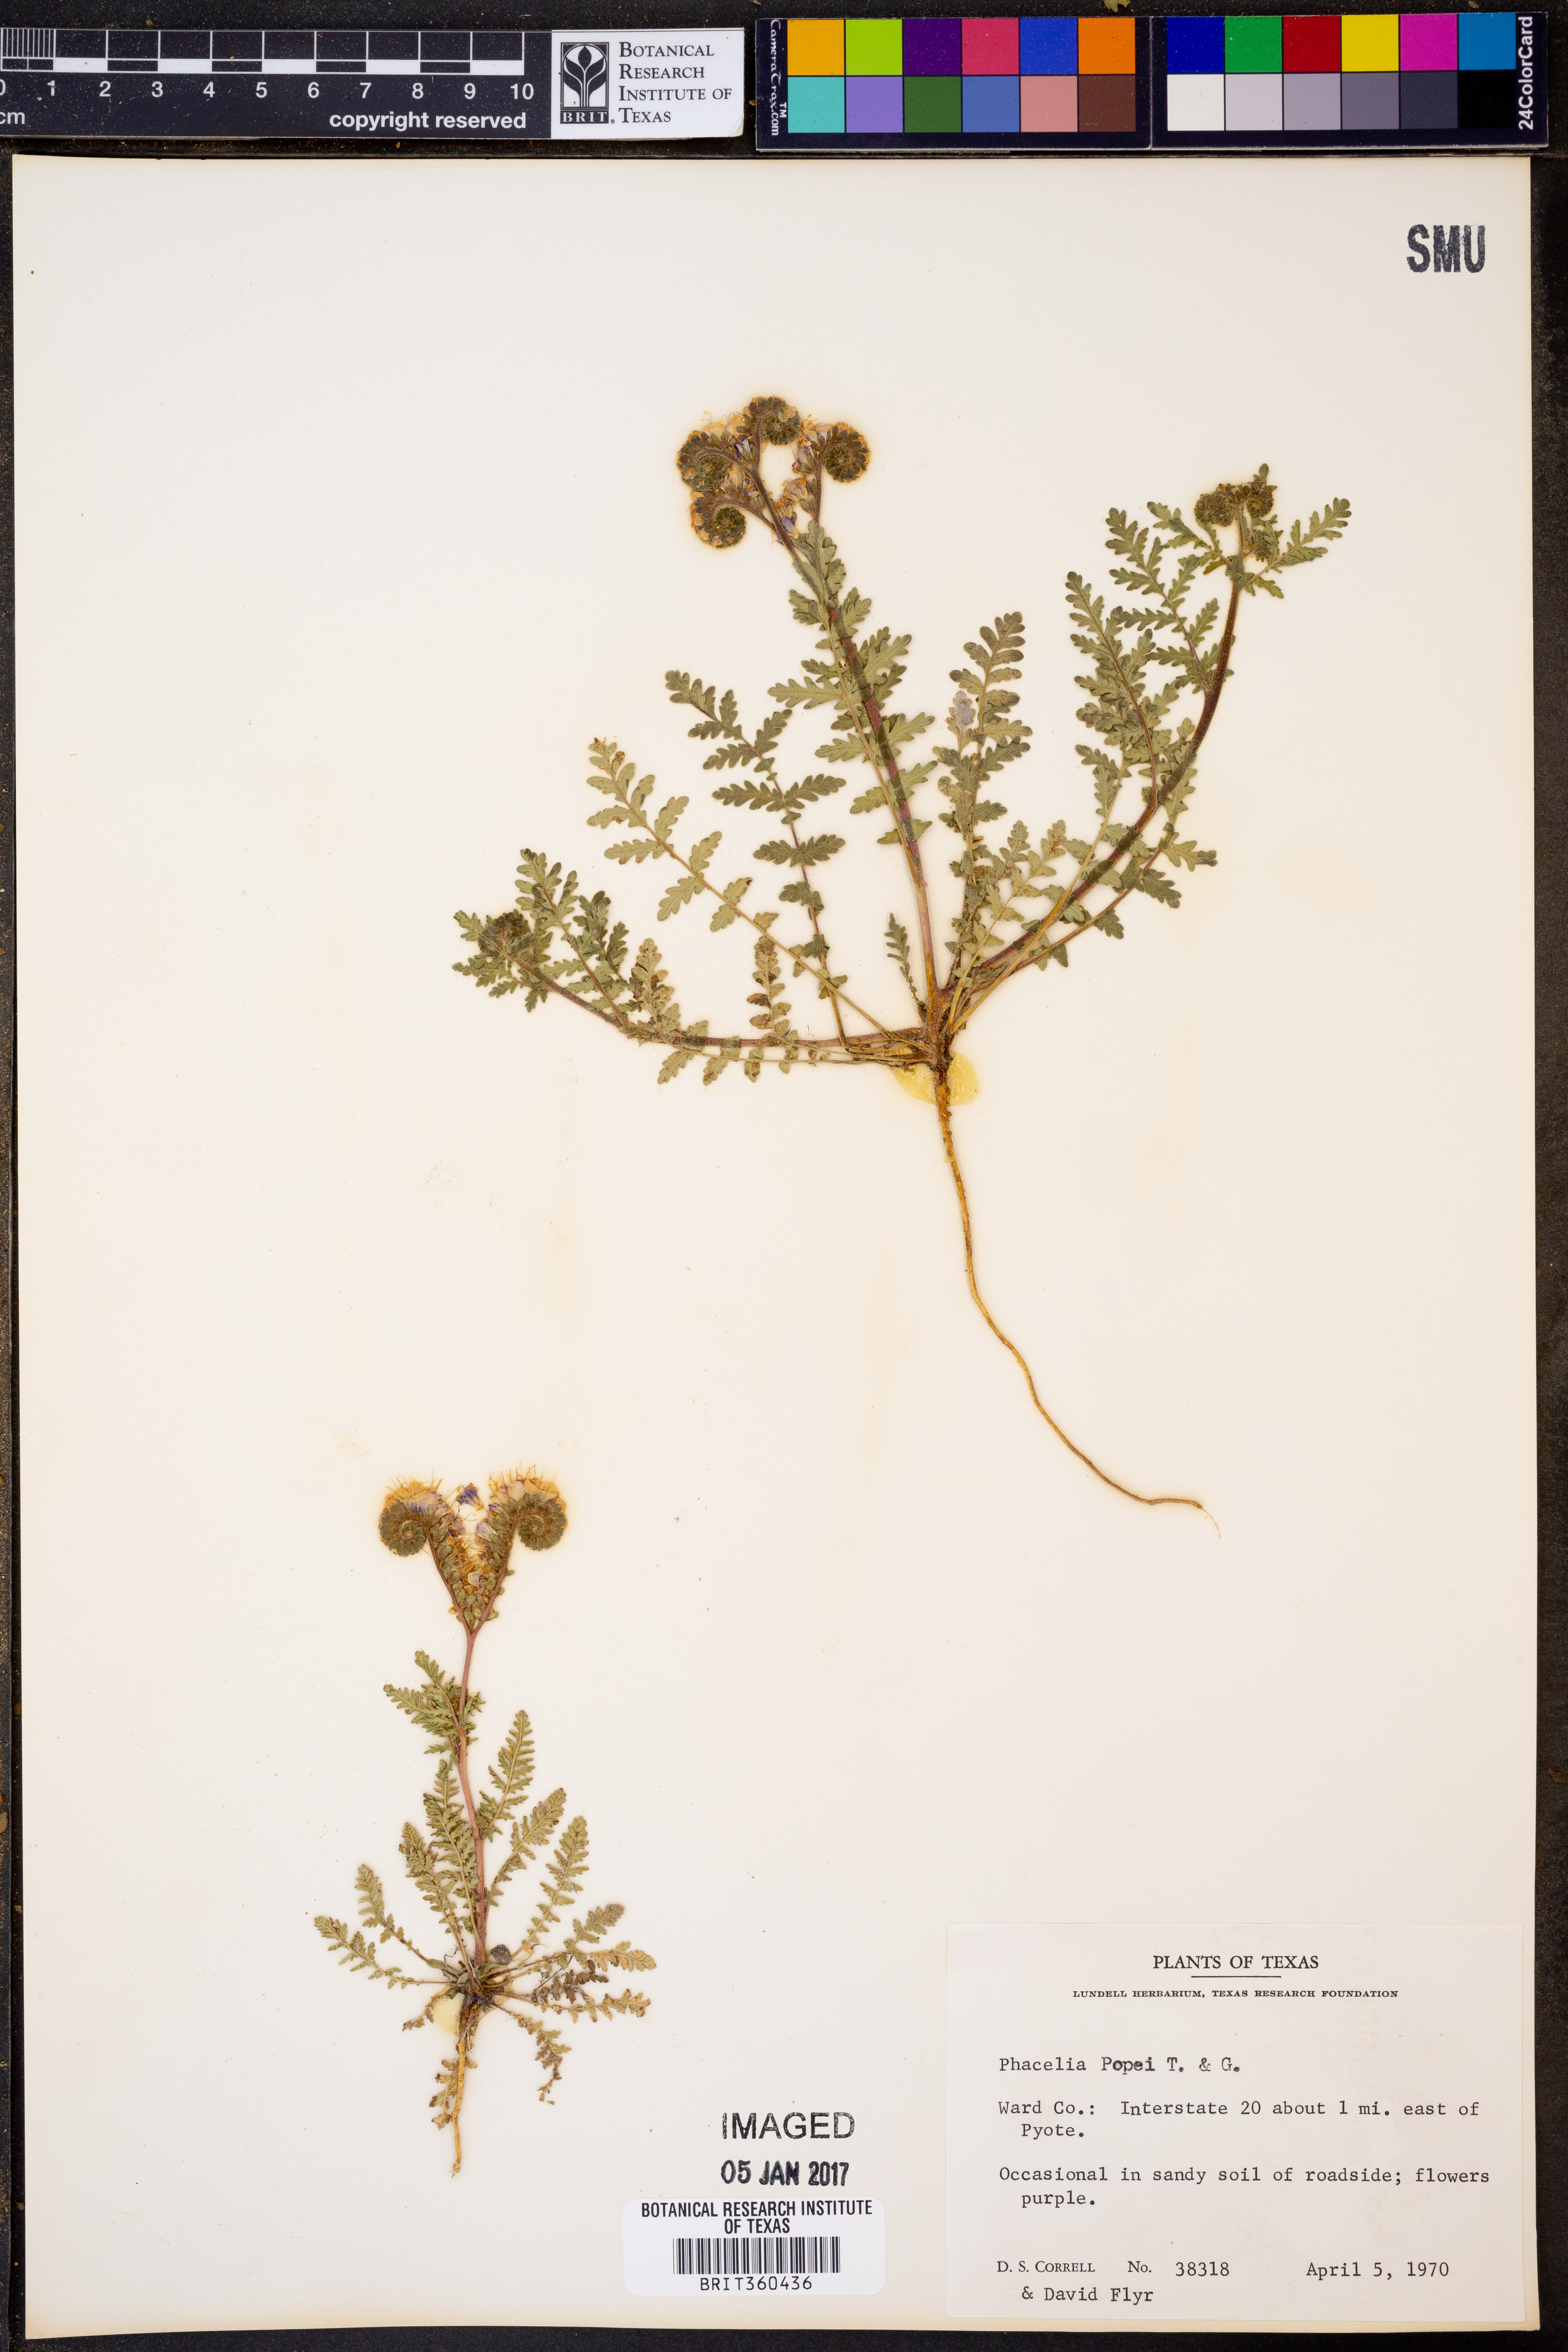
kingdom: Plantae
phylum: Tracheophyta
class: Magnoliopsida
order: Boraginales
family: Hydrophyllaceae
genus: Phacelia
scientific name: Phacelia popei
